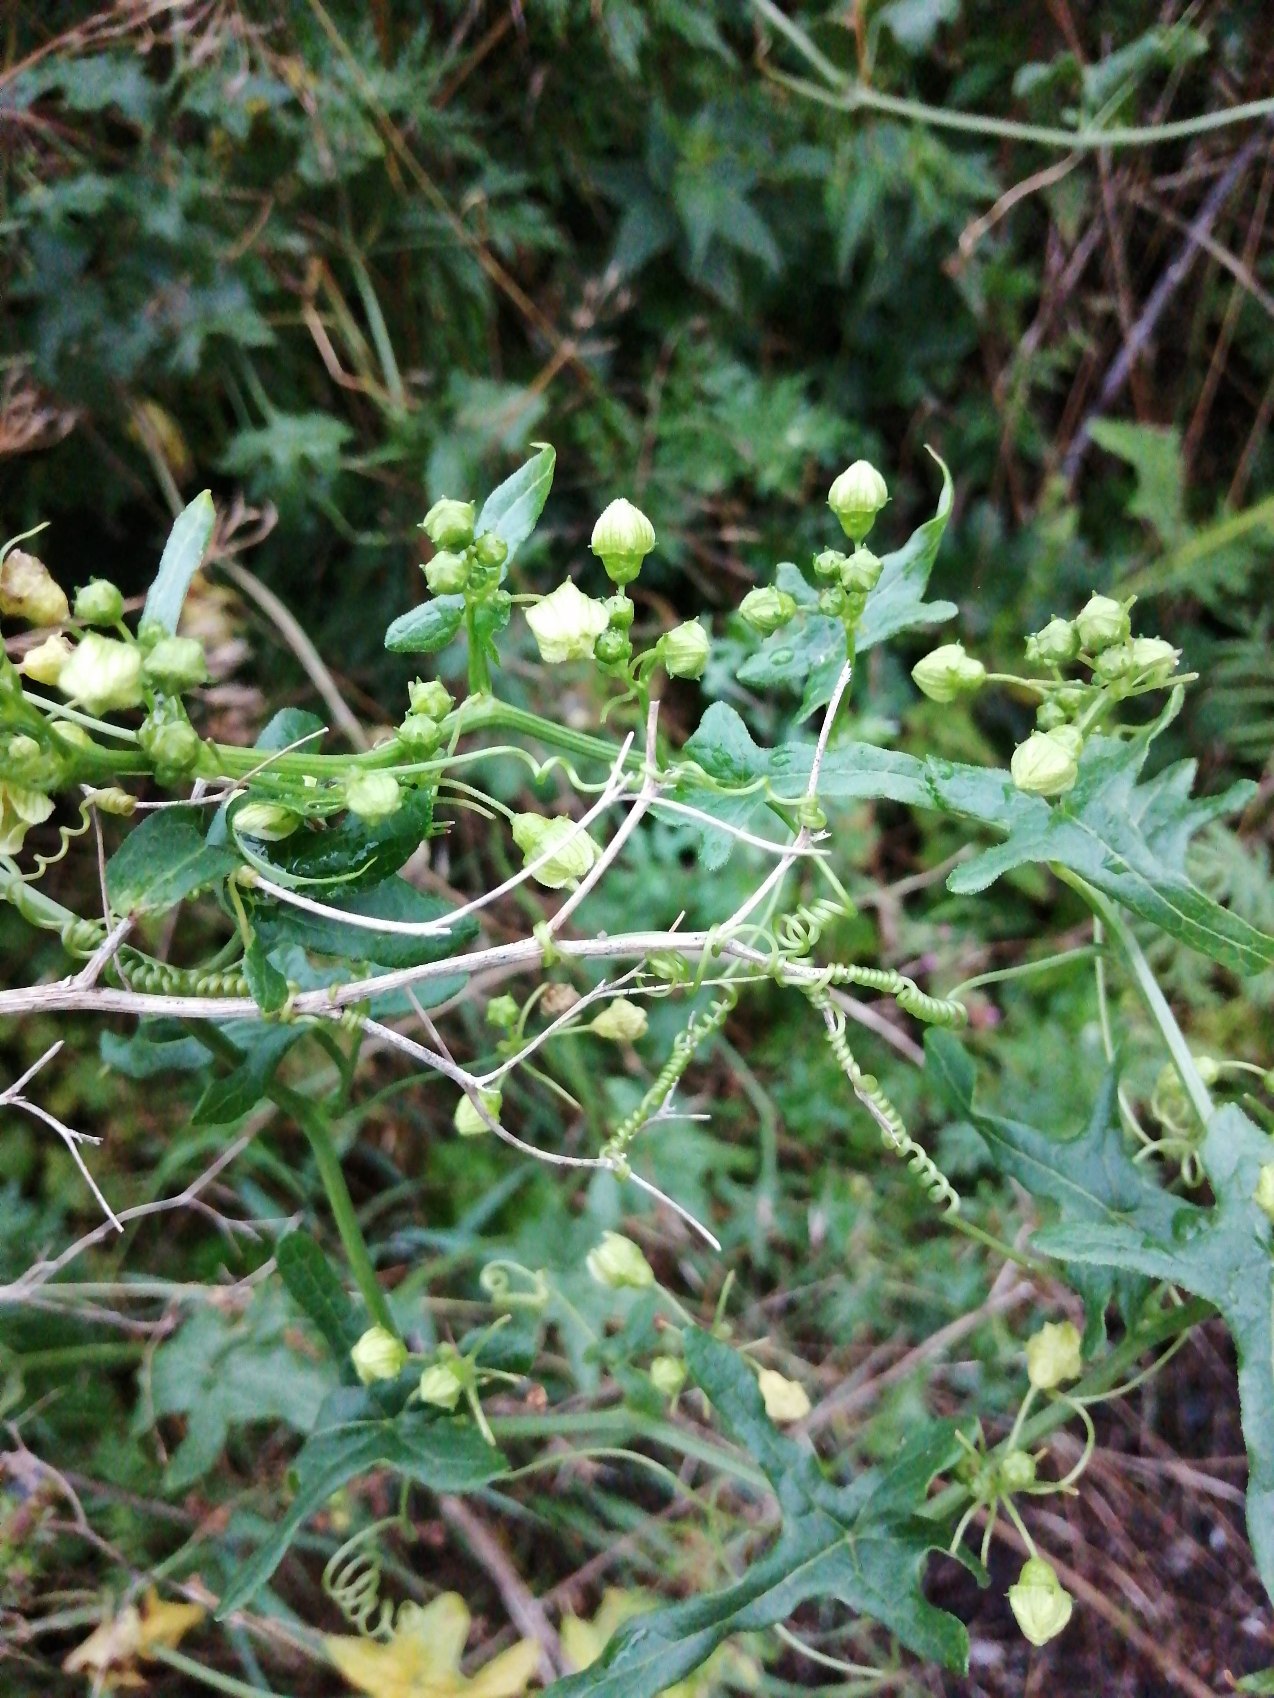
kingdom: Plantae
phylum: Tracheophyta
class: Magnoliopsida
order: Cucurbitales
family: Cucurbitaceae
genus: Bryonia
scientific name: Bryonia dioica
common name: Tvebo galdebær
